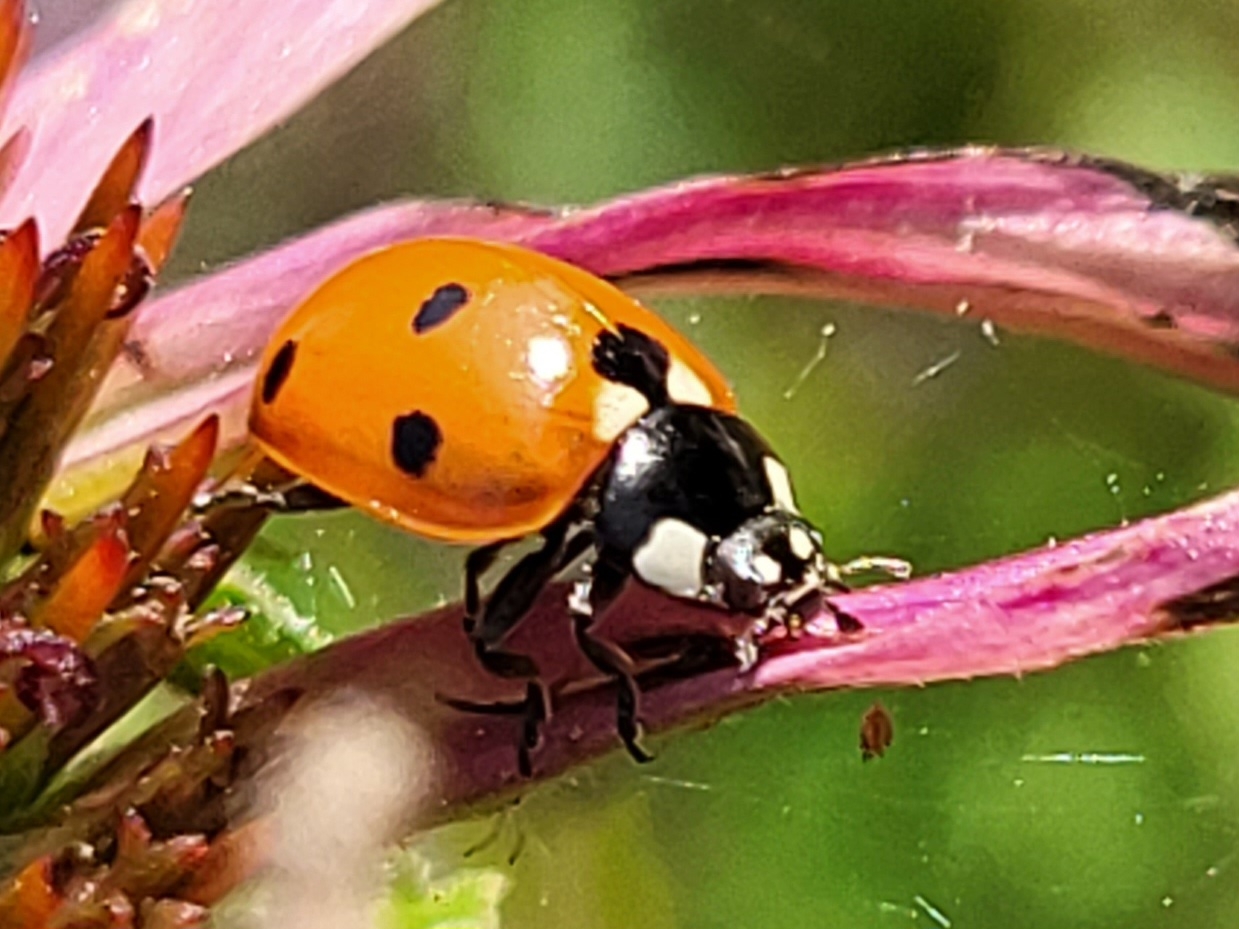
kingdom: Animalia
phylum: Arthropoda
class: Insecta
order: Coleoptera
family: Coccinellidae
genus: Coccinella
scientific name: Coccinella septempunctata
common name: Syvplettet mariehøne
